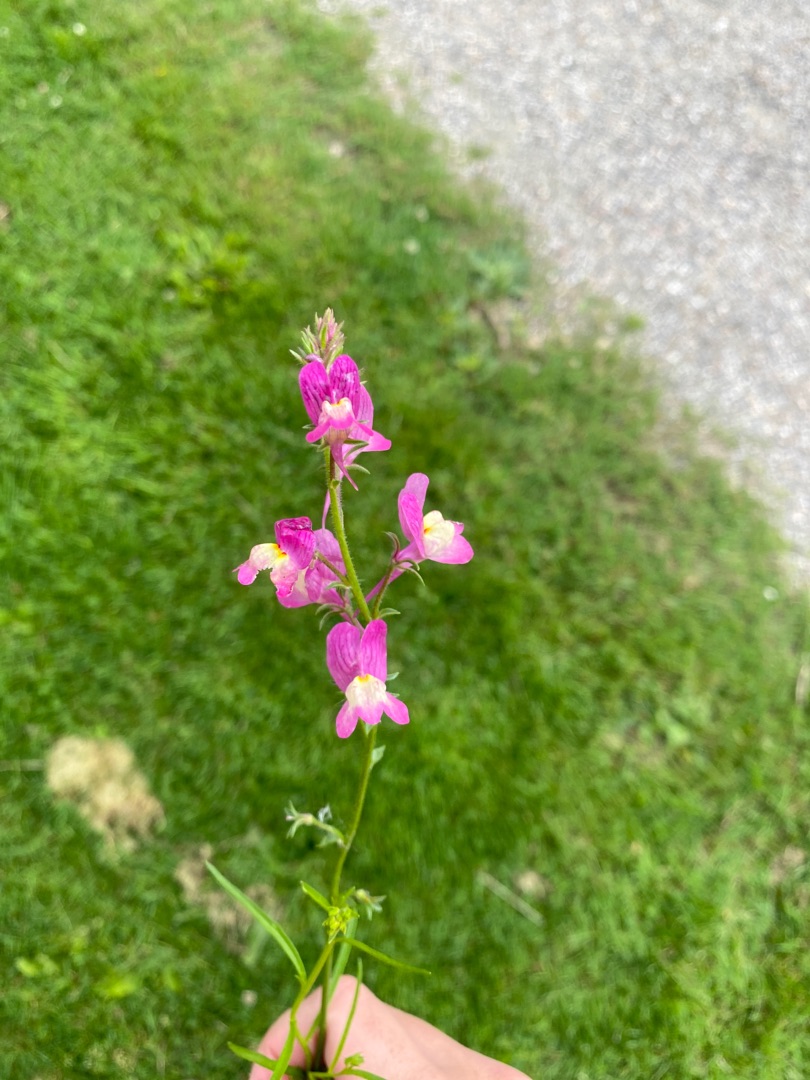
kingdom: Plantae
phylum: Tracheophyta
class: Magnoliopsida
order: Lamiales
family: Plantaginaceae
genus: Linaria
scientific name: Linaria maroccana
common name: Marokkansk torskemund
